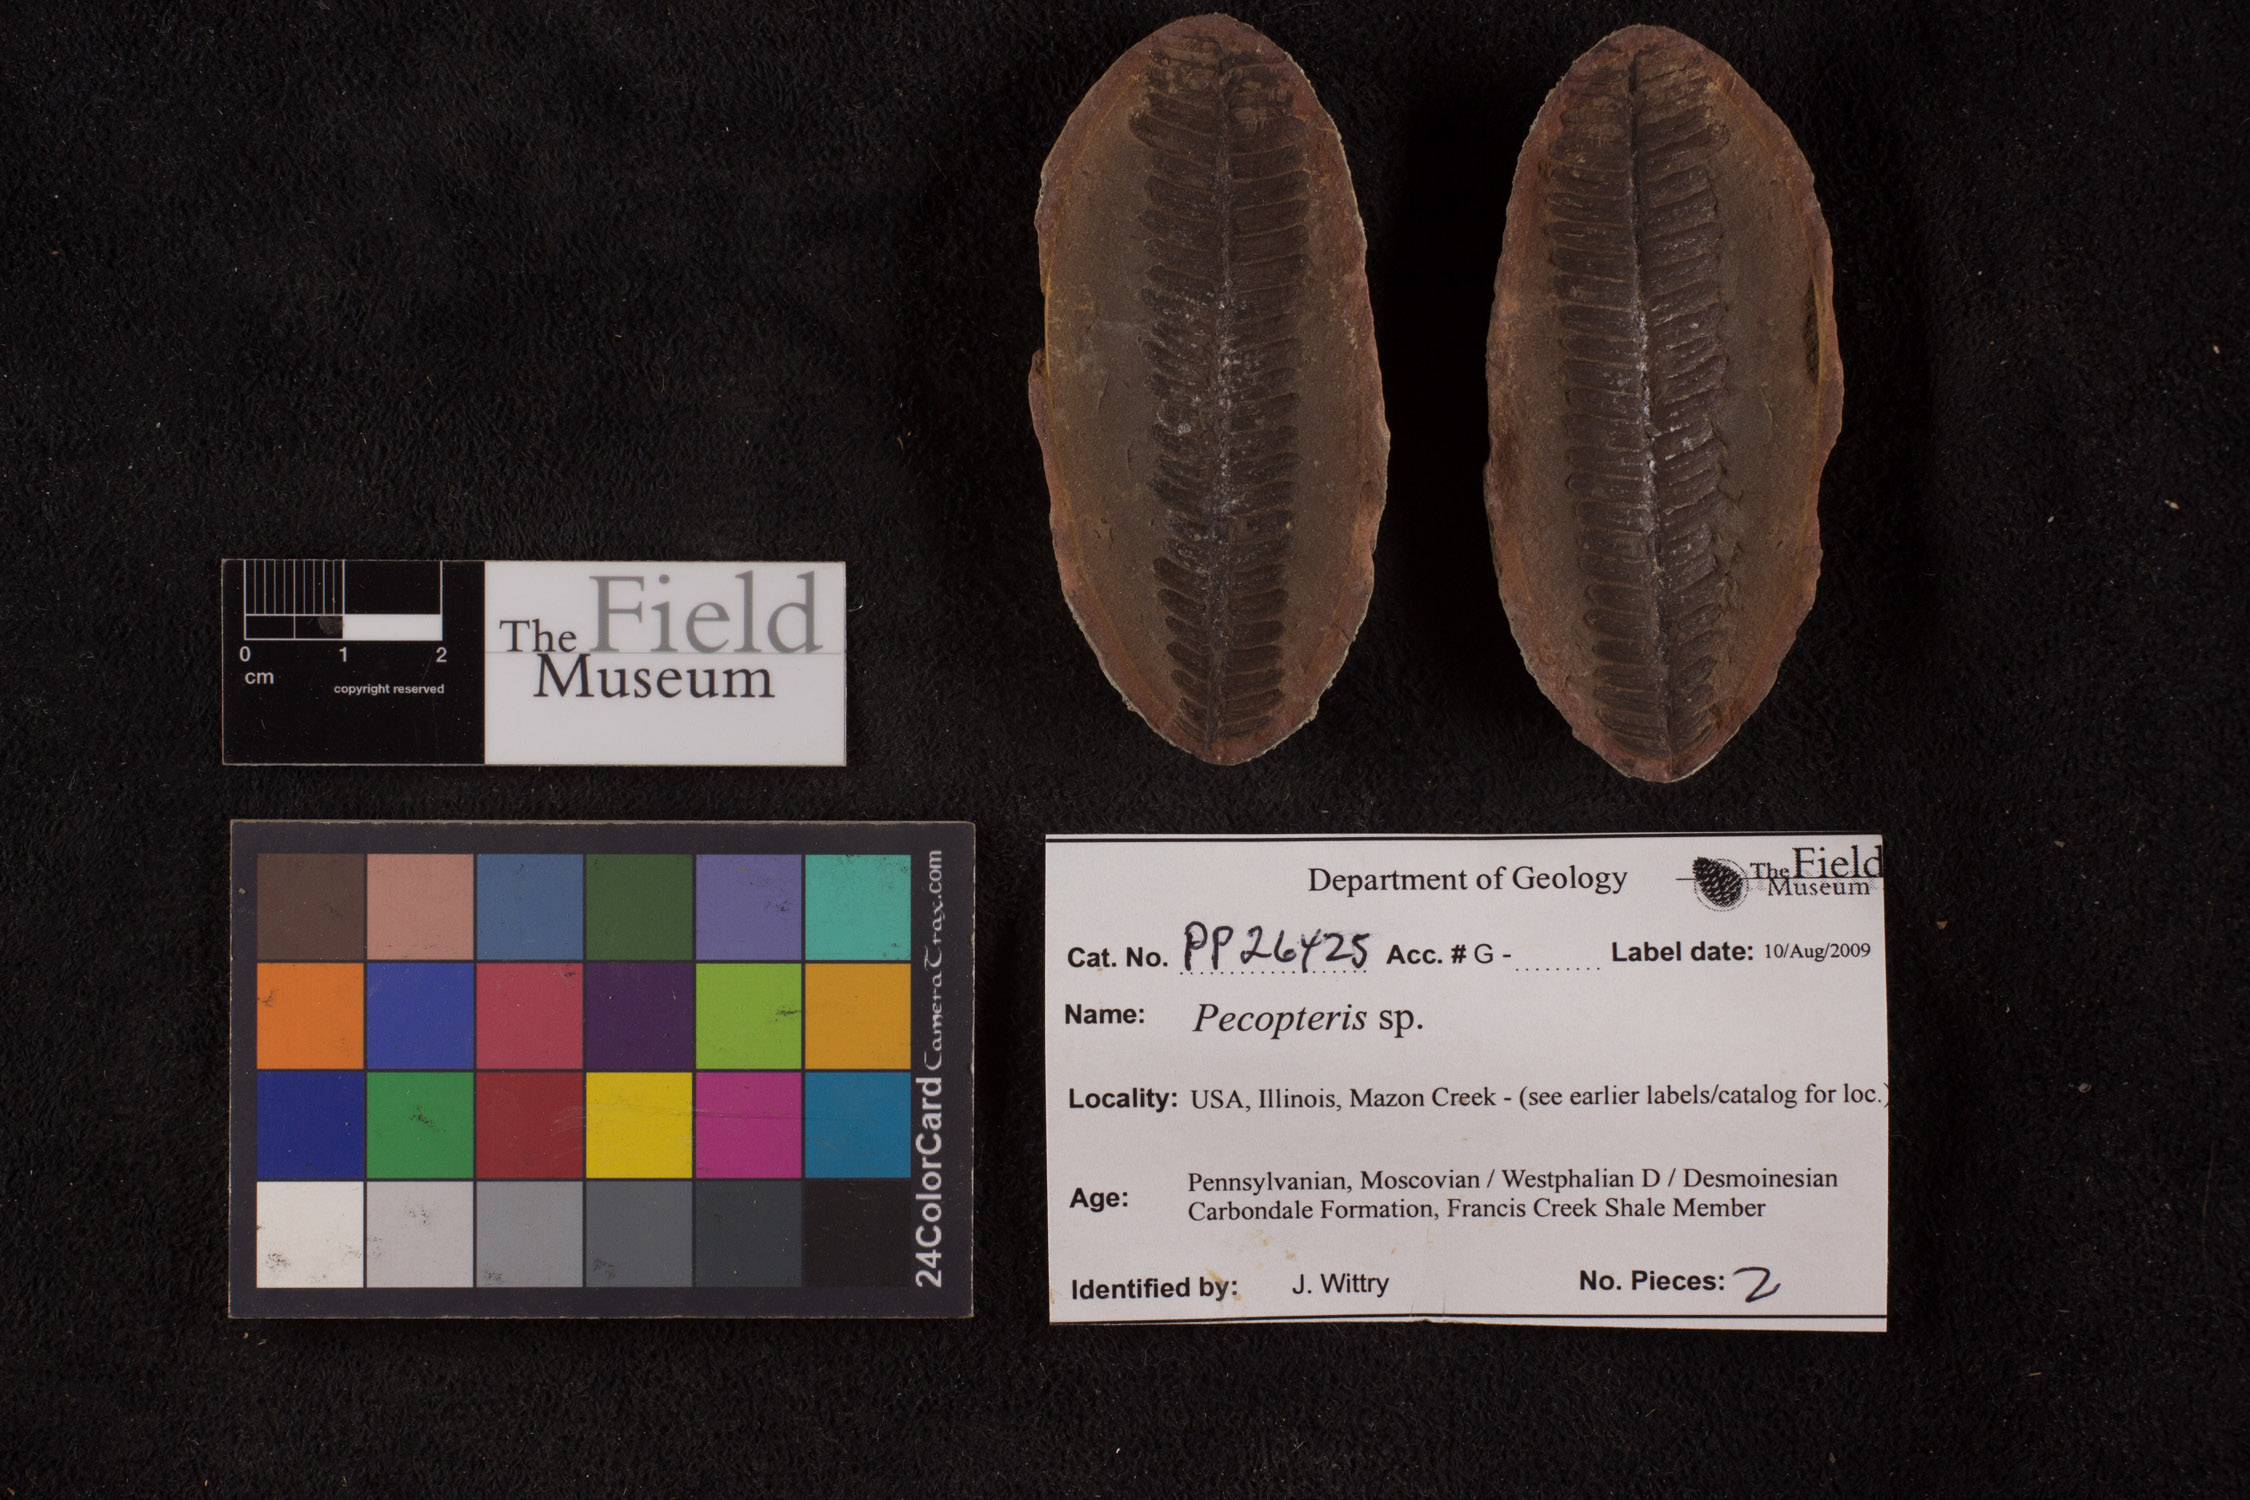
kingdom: Plantae
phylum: Tracheophyta
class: Polypodiopsida
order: Marattiales
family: Asterothecaceae
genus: Pecopteris
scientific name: Pecopteris
